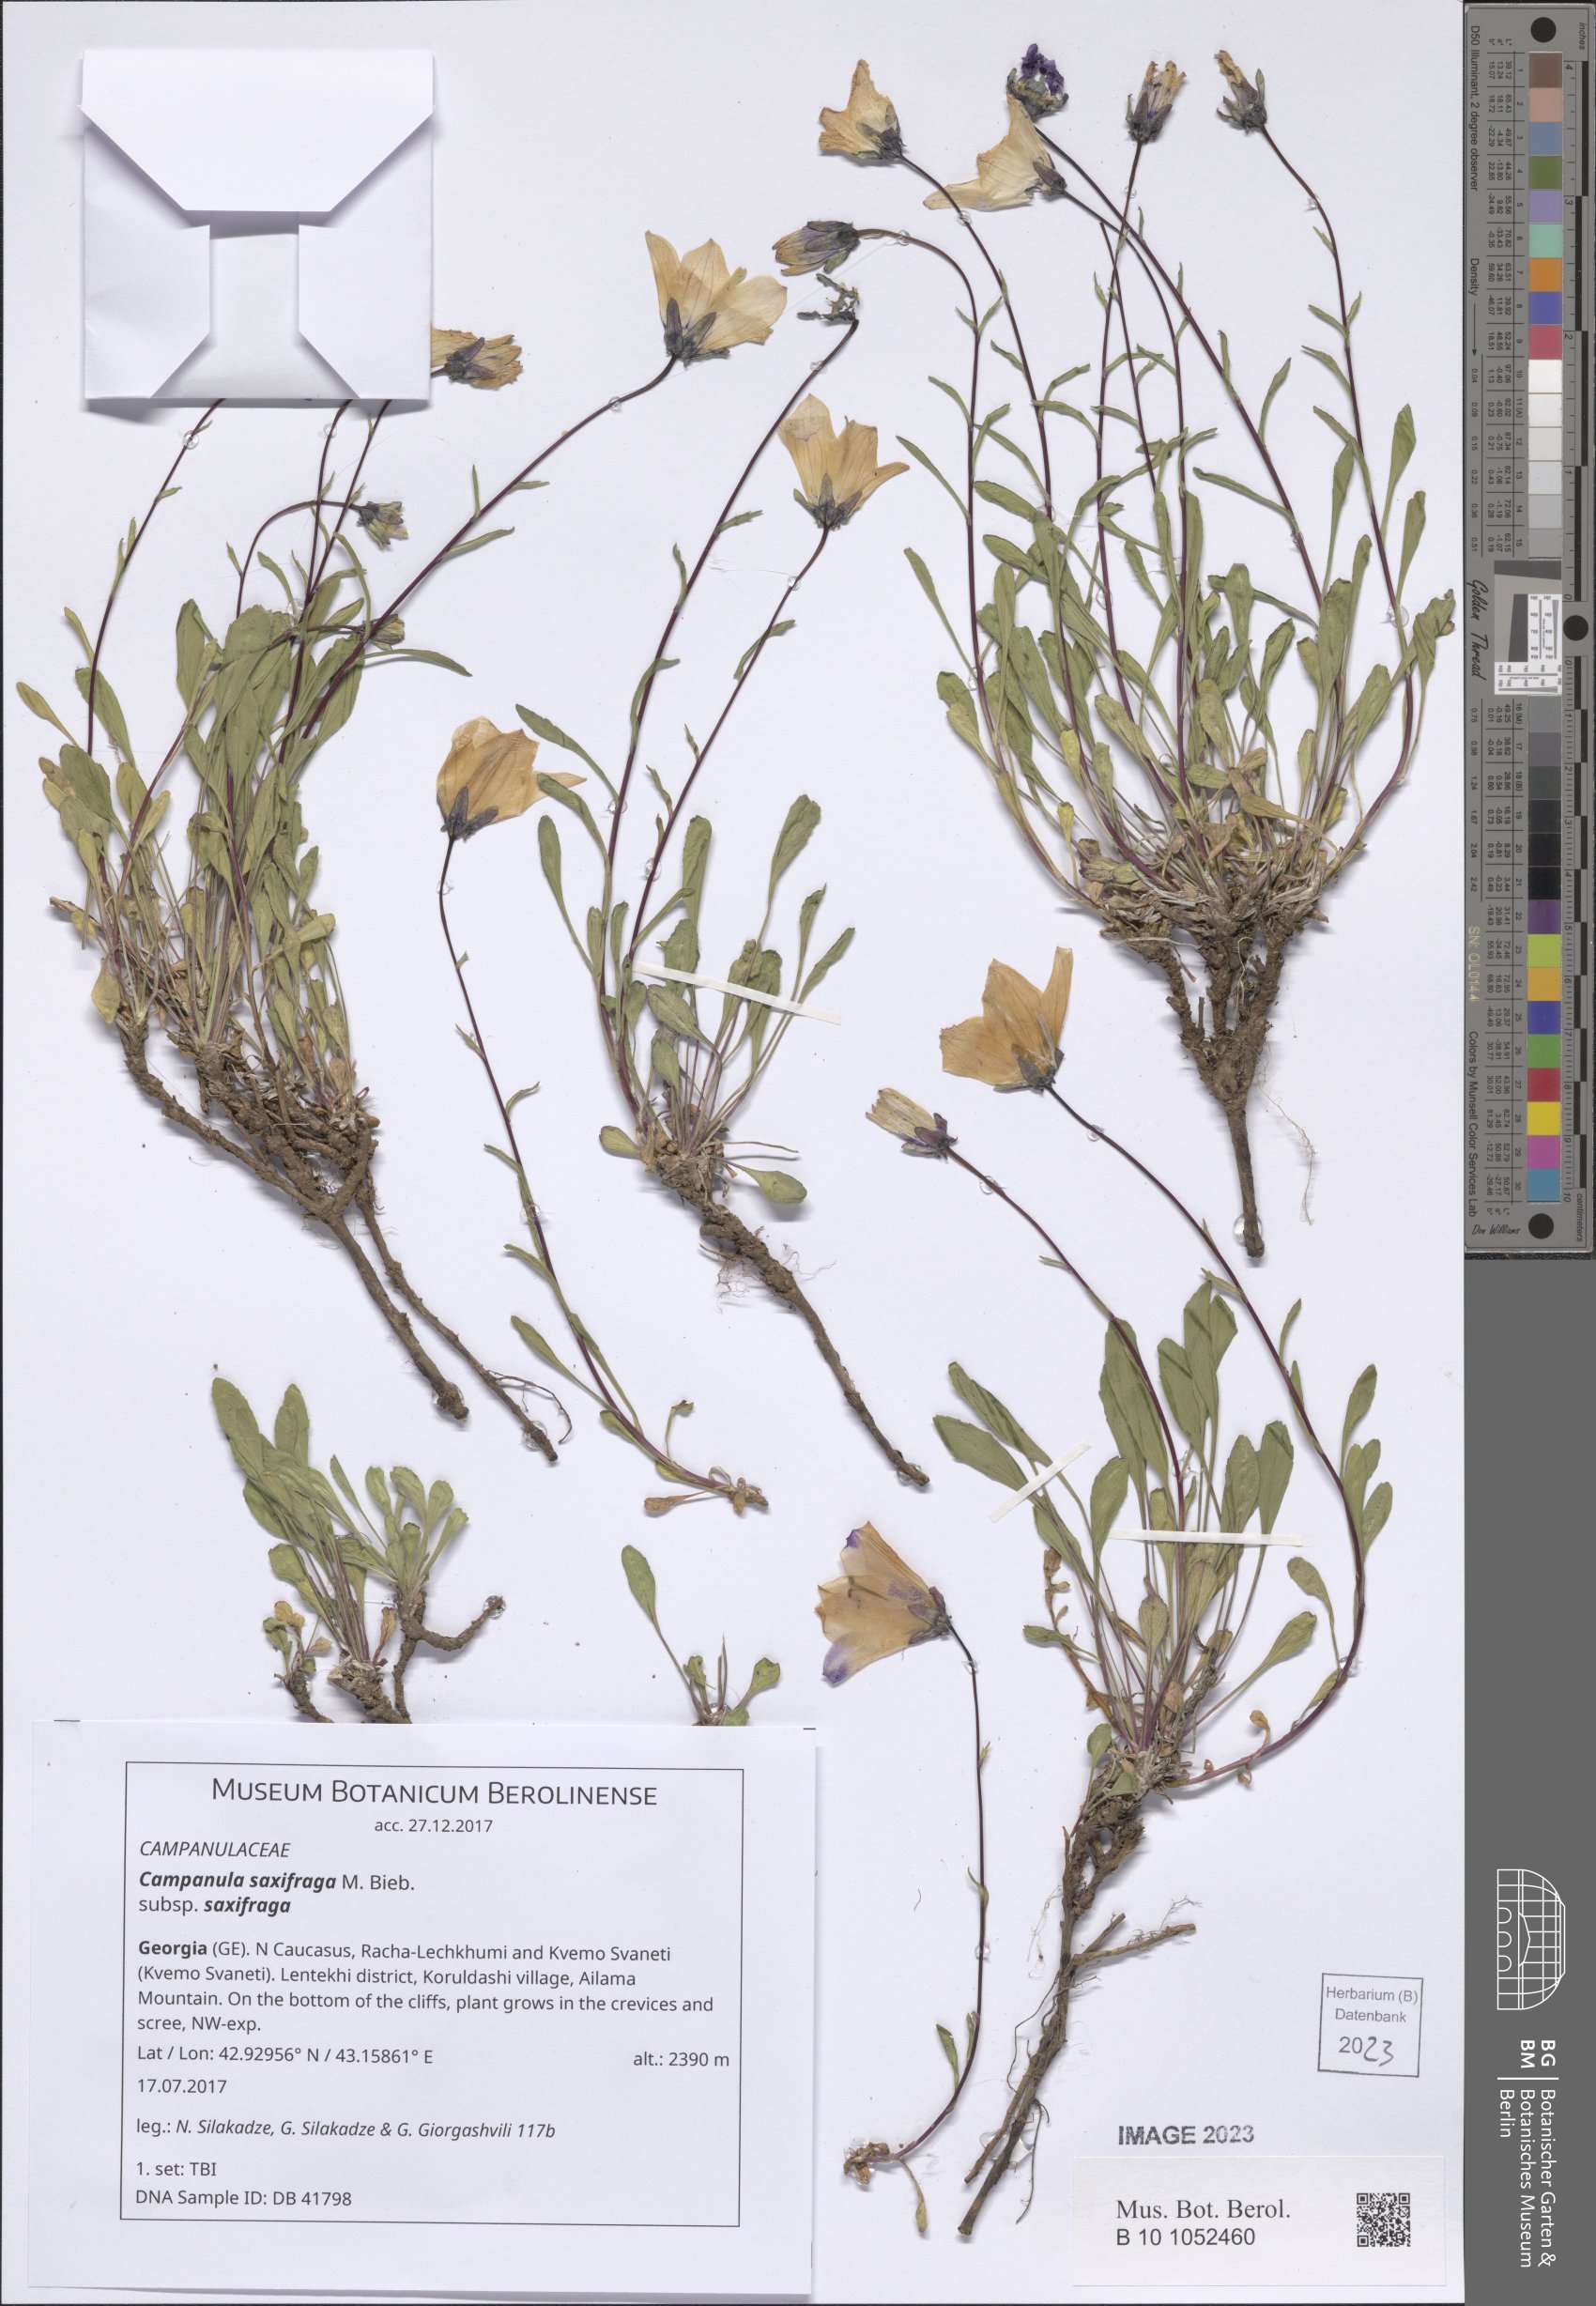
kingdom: Plantae
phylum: Tracheophyta
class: Magnoliopsida
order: Asterales
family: Campanulaceae
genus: Campanula
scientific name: Campanula saxifraga
